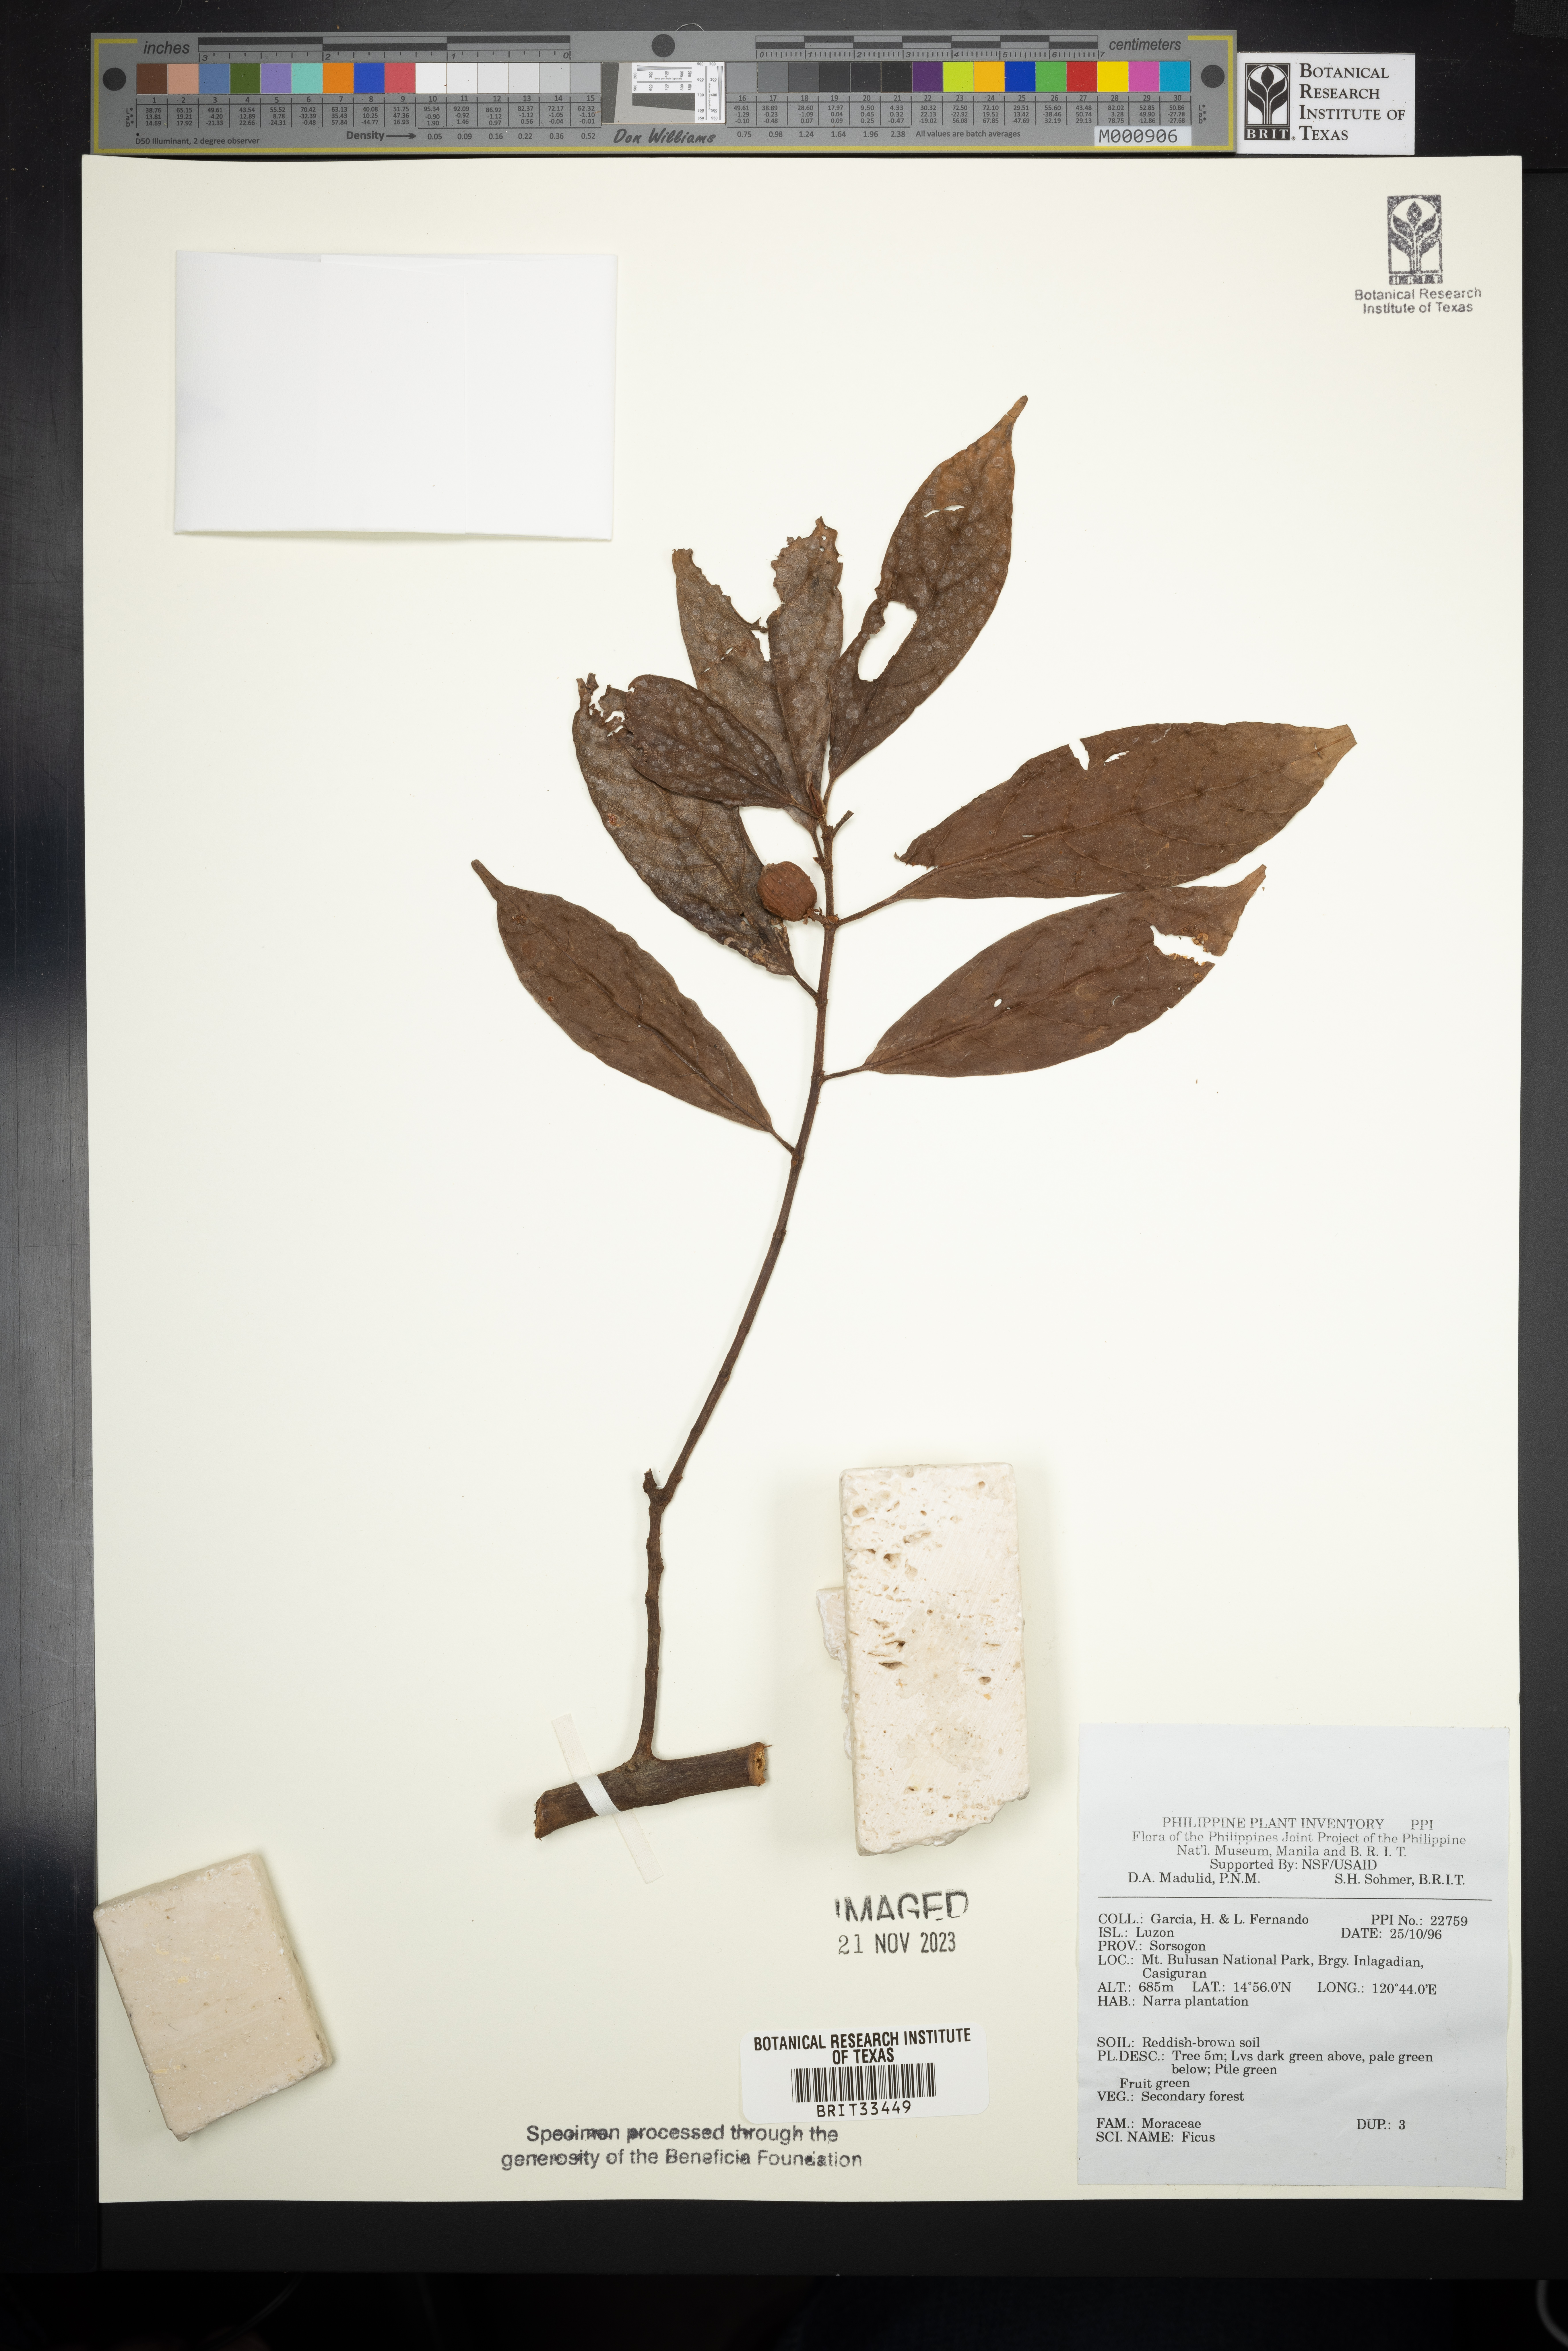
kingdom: Plantae
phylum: Tracheophyta
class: Magnoliopsida
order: Rosales
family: Moraceae
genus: Ficus
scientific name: Ficus
